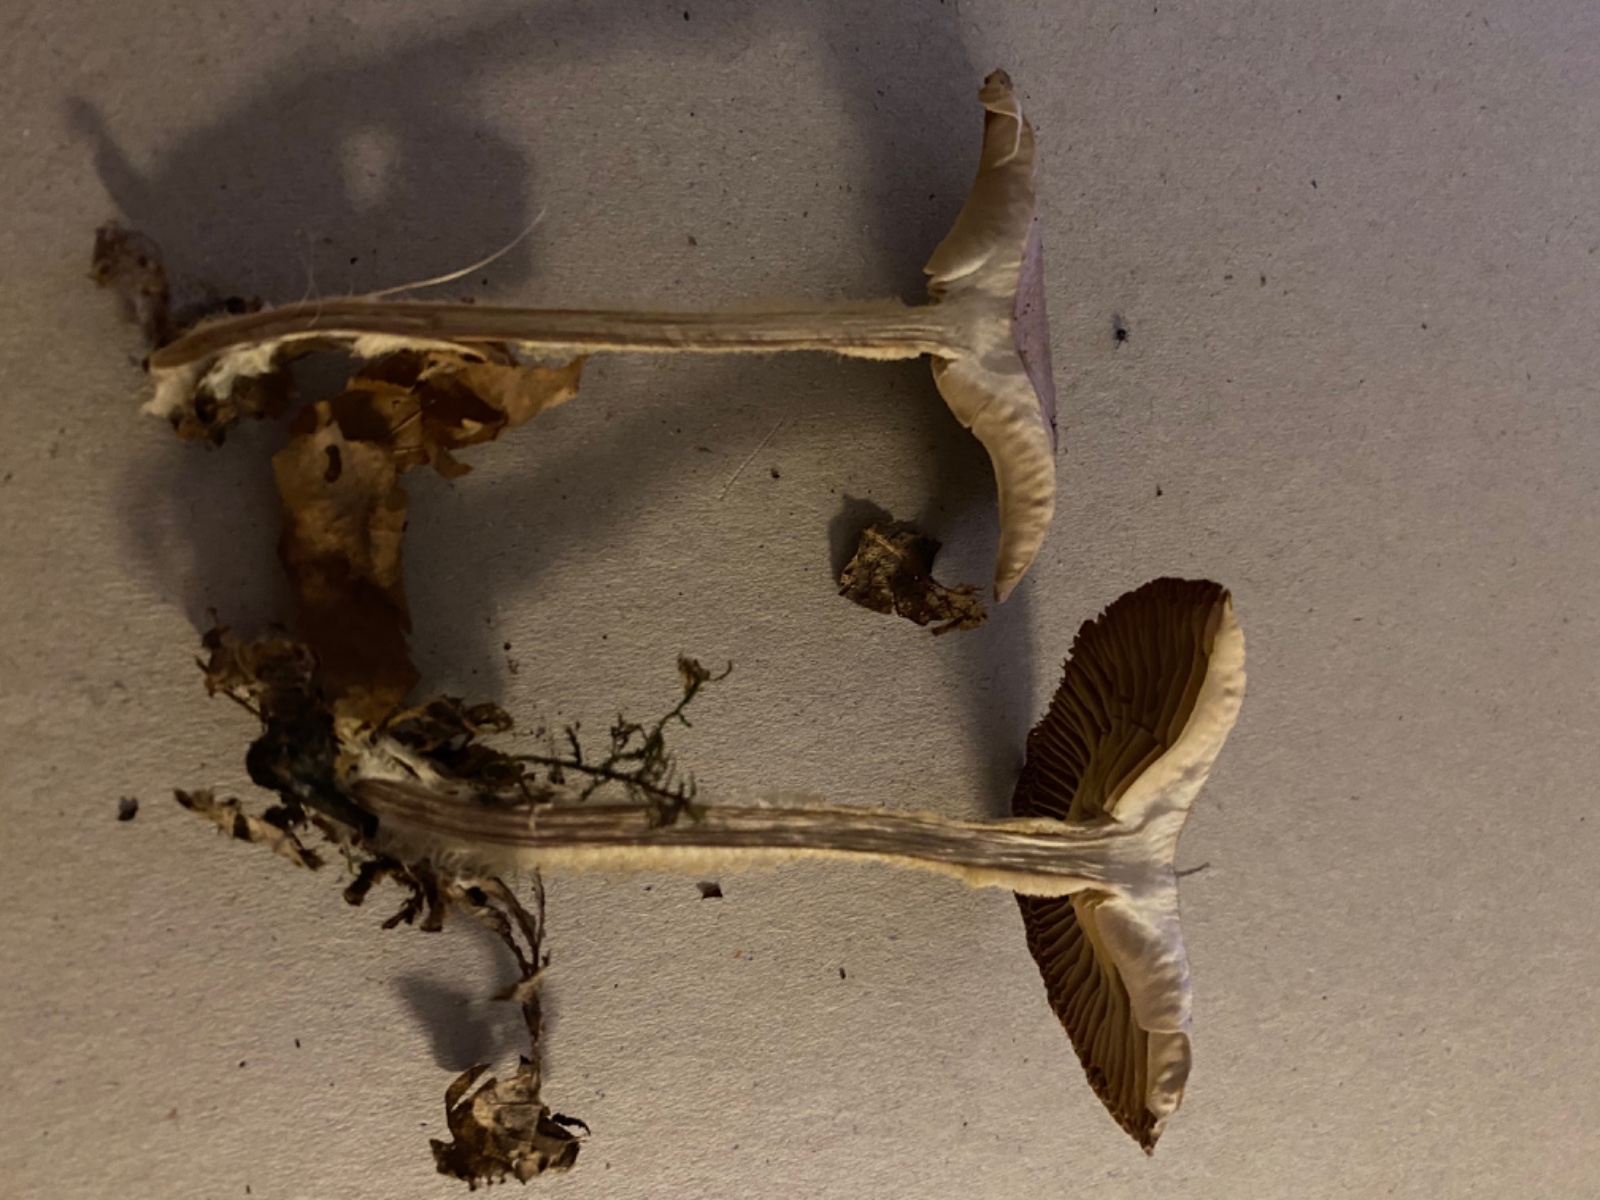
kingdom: Fungi
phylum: Basidiomycota
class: Agaricomycetes
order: Agaricales
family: Omphalotaceae
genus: Collybiopsis
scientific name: Collybiopsis peronata
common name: bestøvlet fladhat
